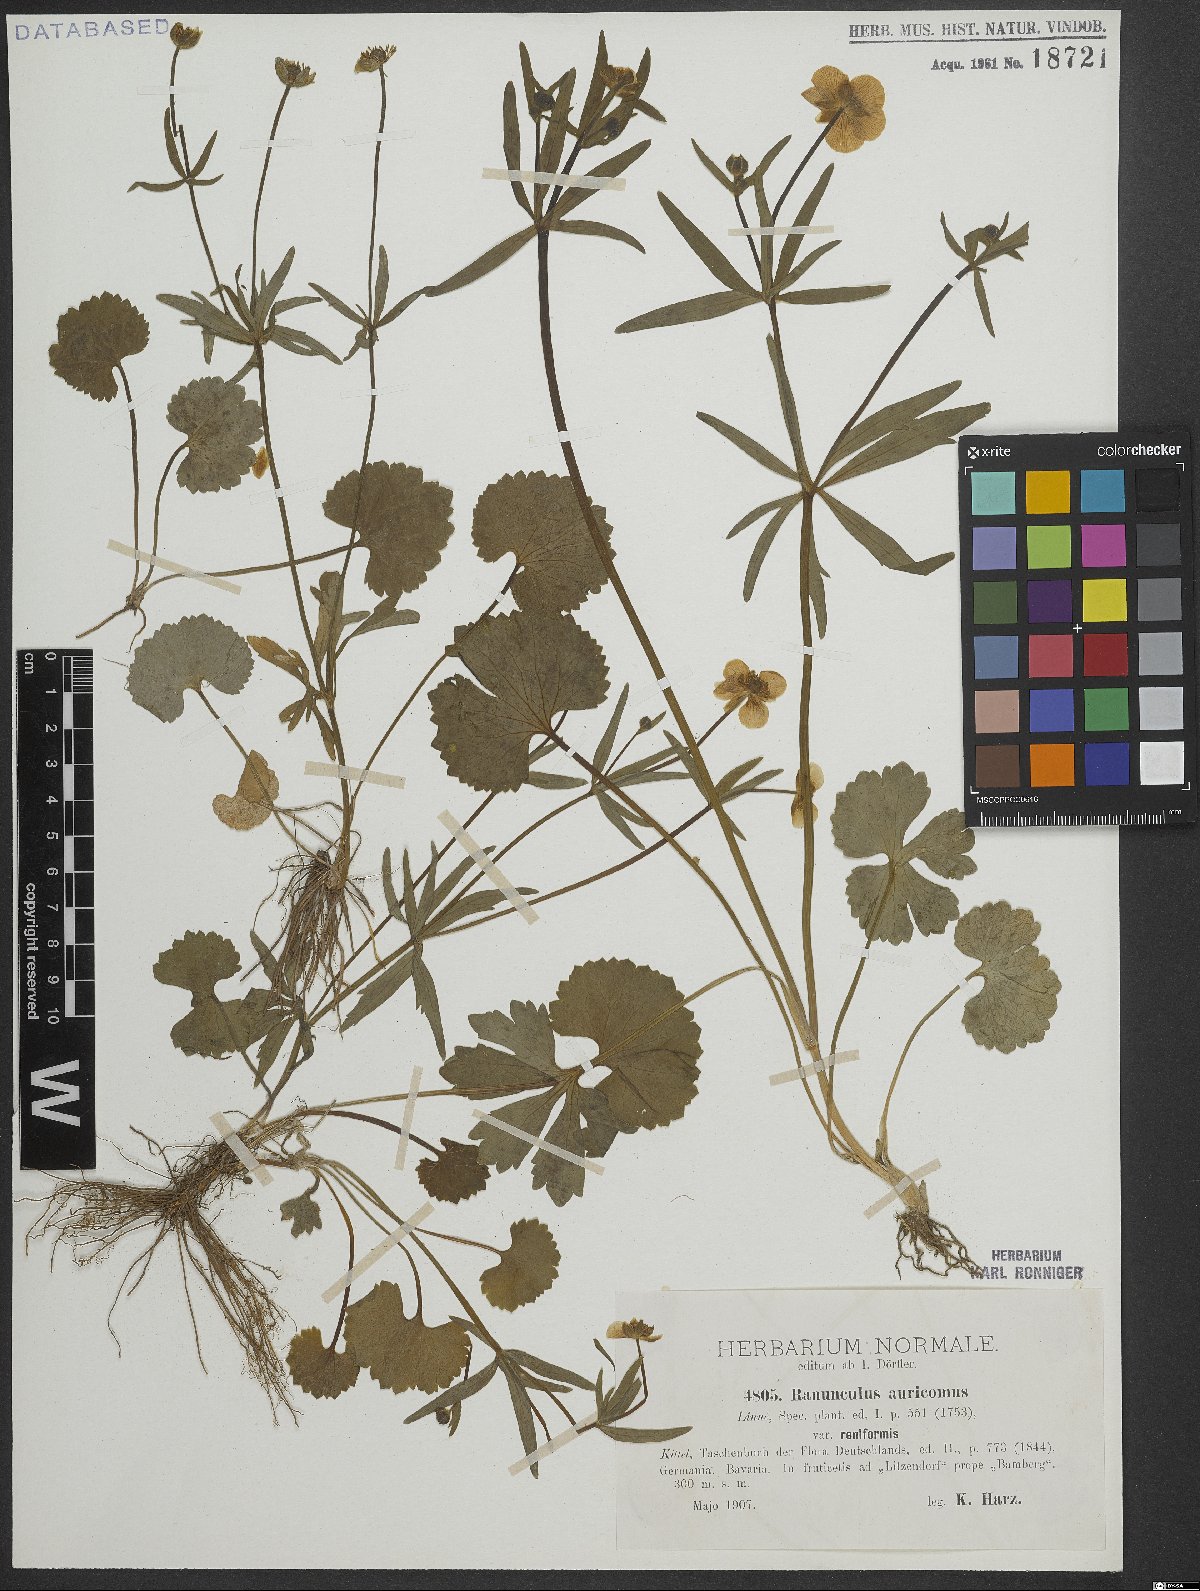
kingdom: Plantae
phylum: Tracheophyta
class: Magnoliopsida
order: Ranunculales
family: Ranunculaceae
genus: Ranunculus
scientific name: Ranunculus auricomus
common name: Goldilocks buttercup
